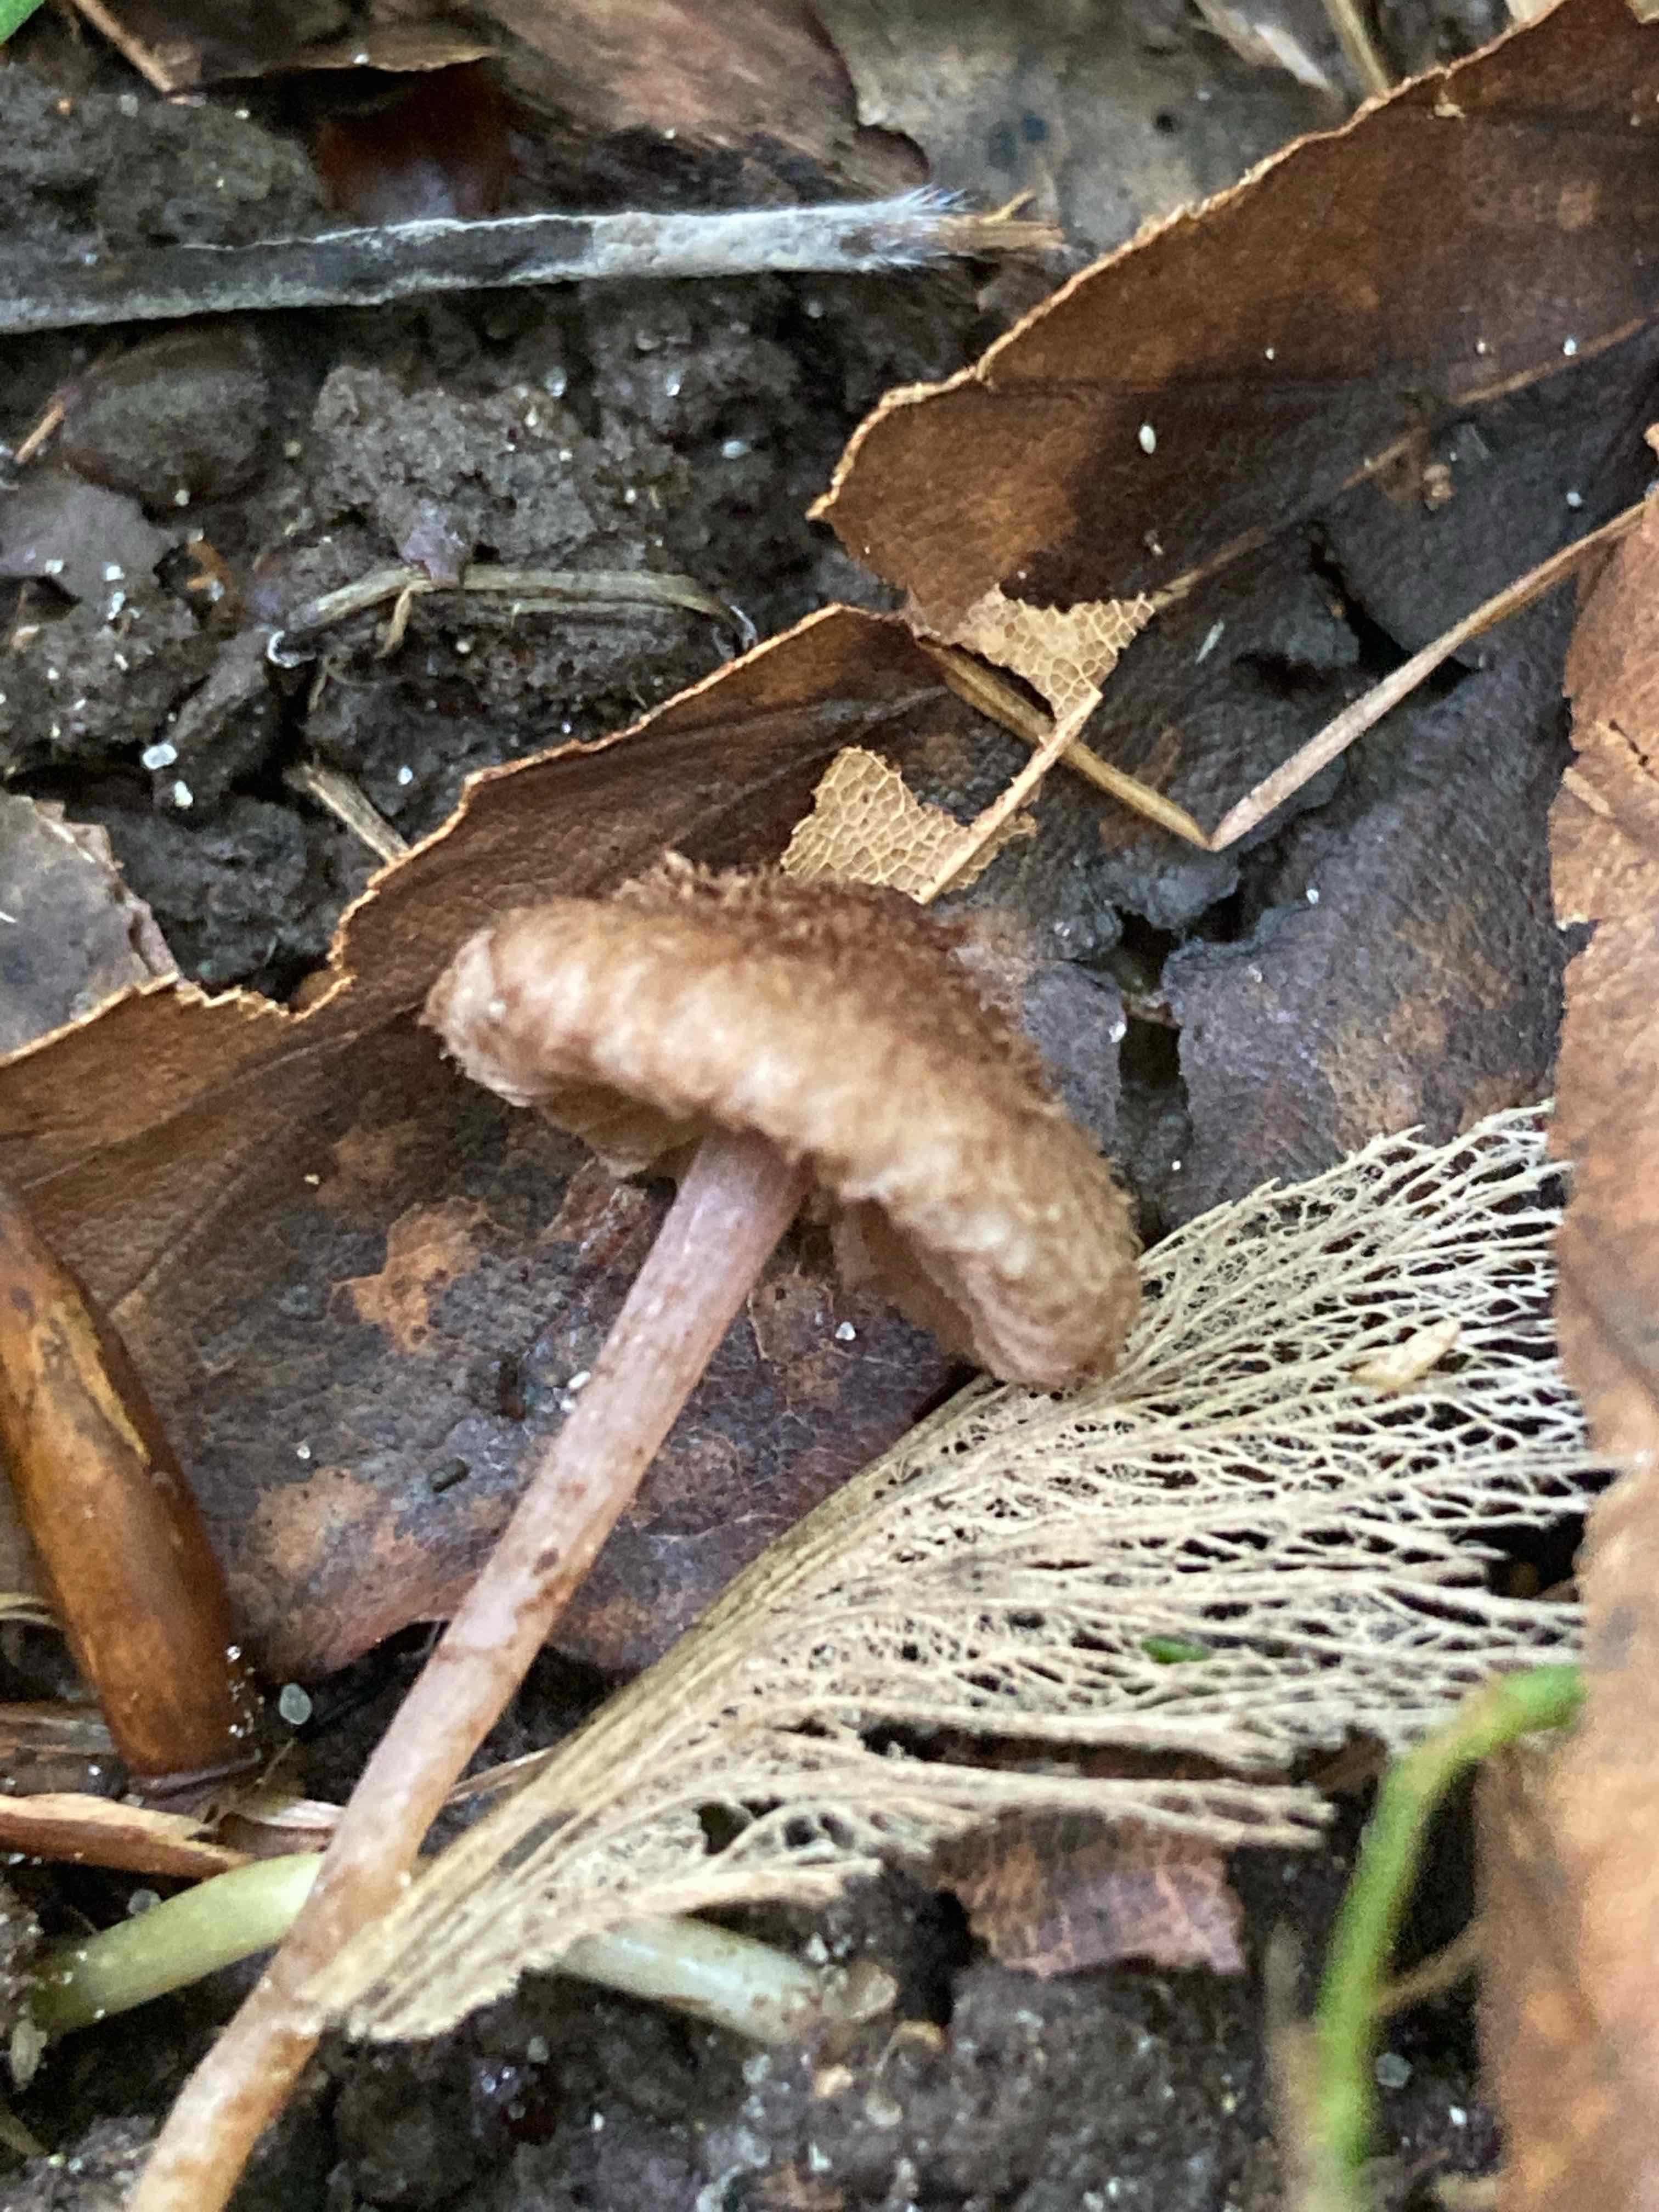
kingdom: Fungi
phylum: Basidiomycota
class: Agaricomycetes
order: Agaricales
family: Inocybaceae
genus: Inocybe
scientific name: Inocybe cincinnata
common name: lillabladet trævlhat
